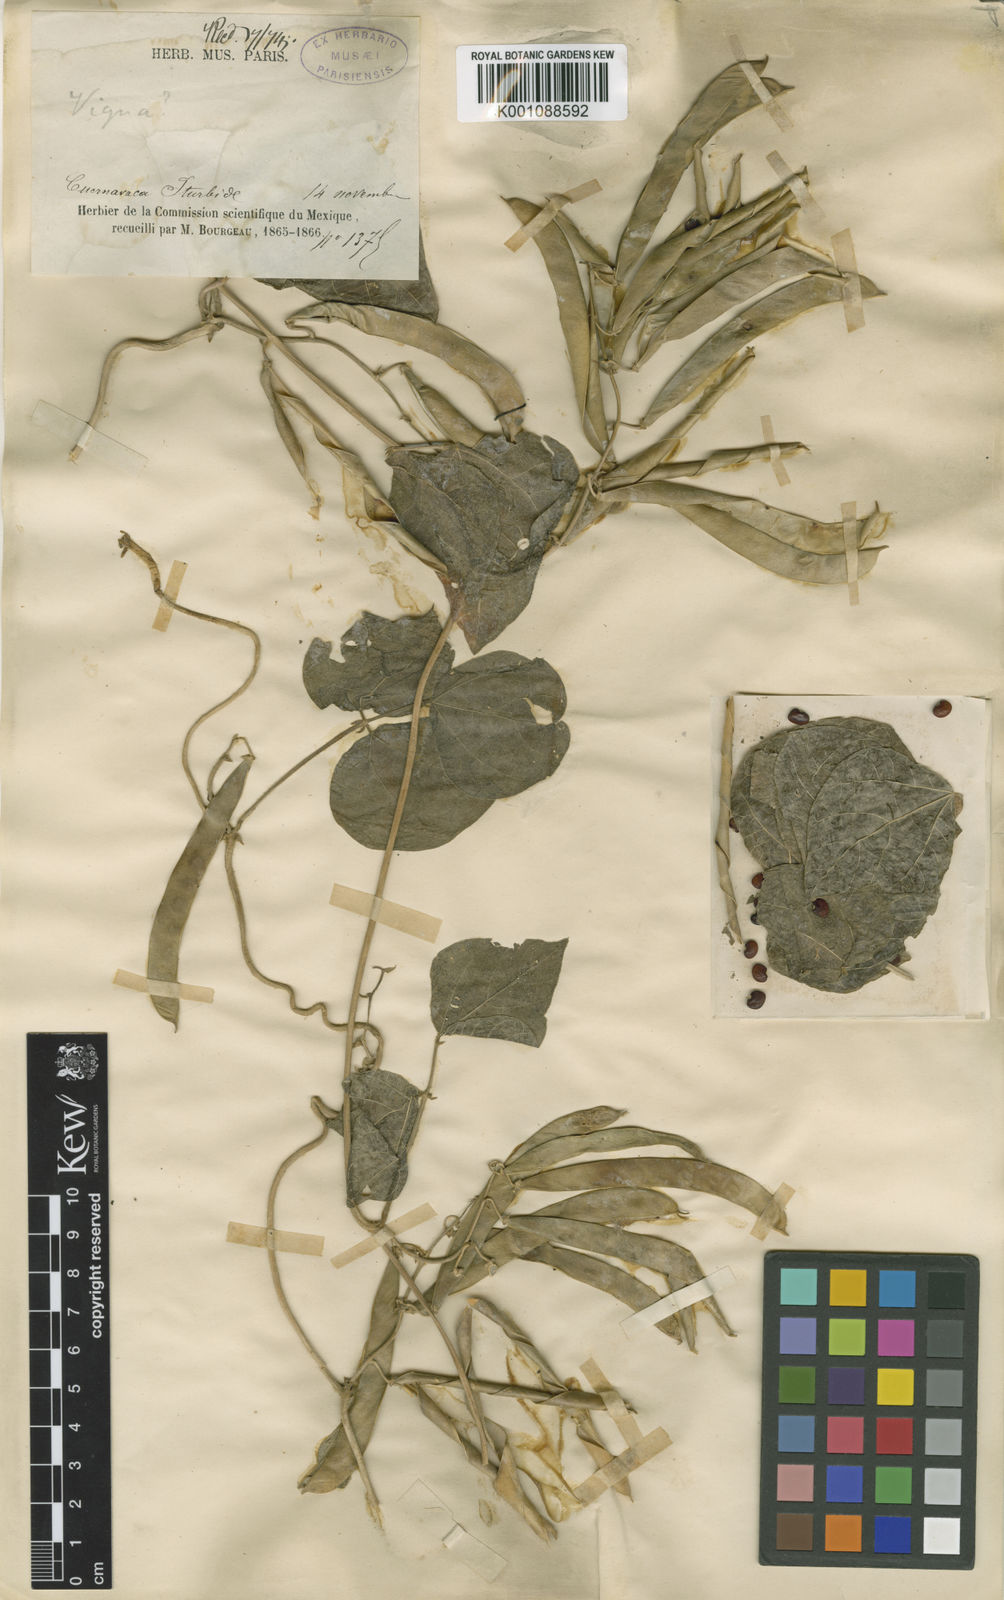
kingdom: Plantae
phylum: Tracheophyta
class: Magnoliopsida
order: Fabales
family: Fabaceae
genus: Phaseolus
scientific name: Phaseolus vulgaris
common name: Bean
